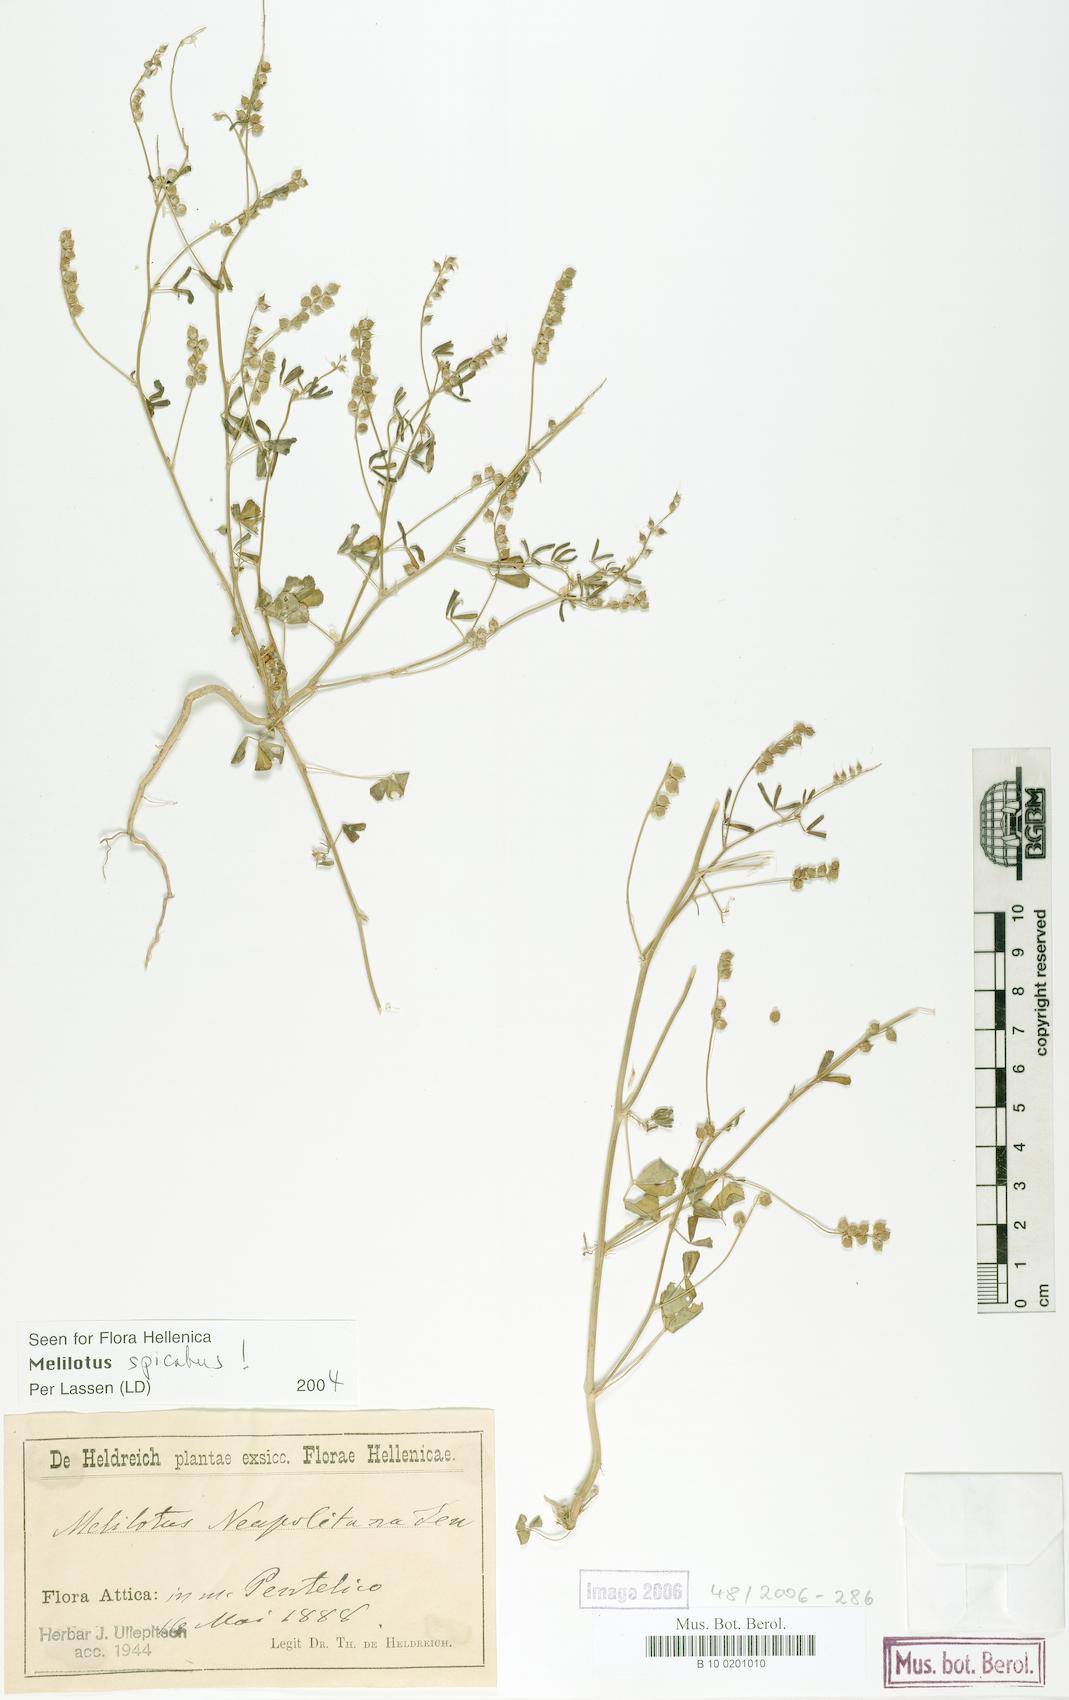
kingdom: Plantae
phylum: Tracheophyta
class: Magnoliopsida
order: Fabales
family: Fabaceae
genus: Melilotus
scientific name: Melilotus neapolitanus
